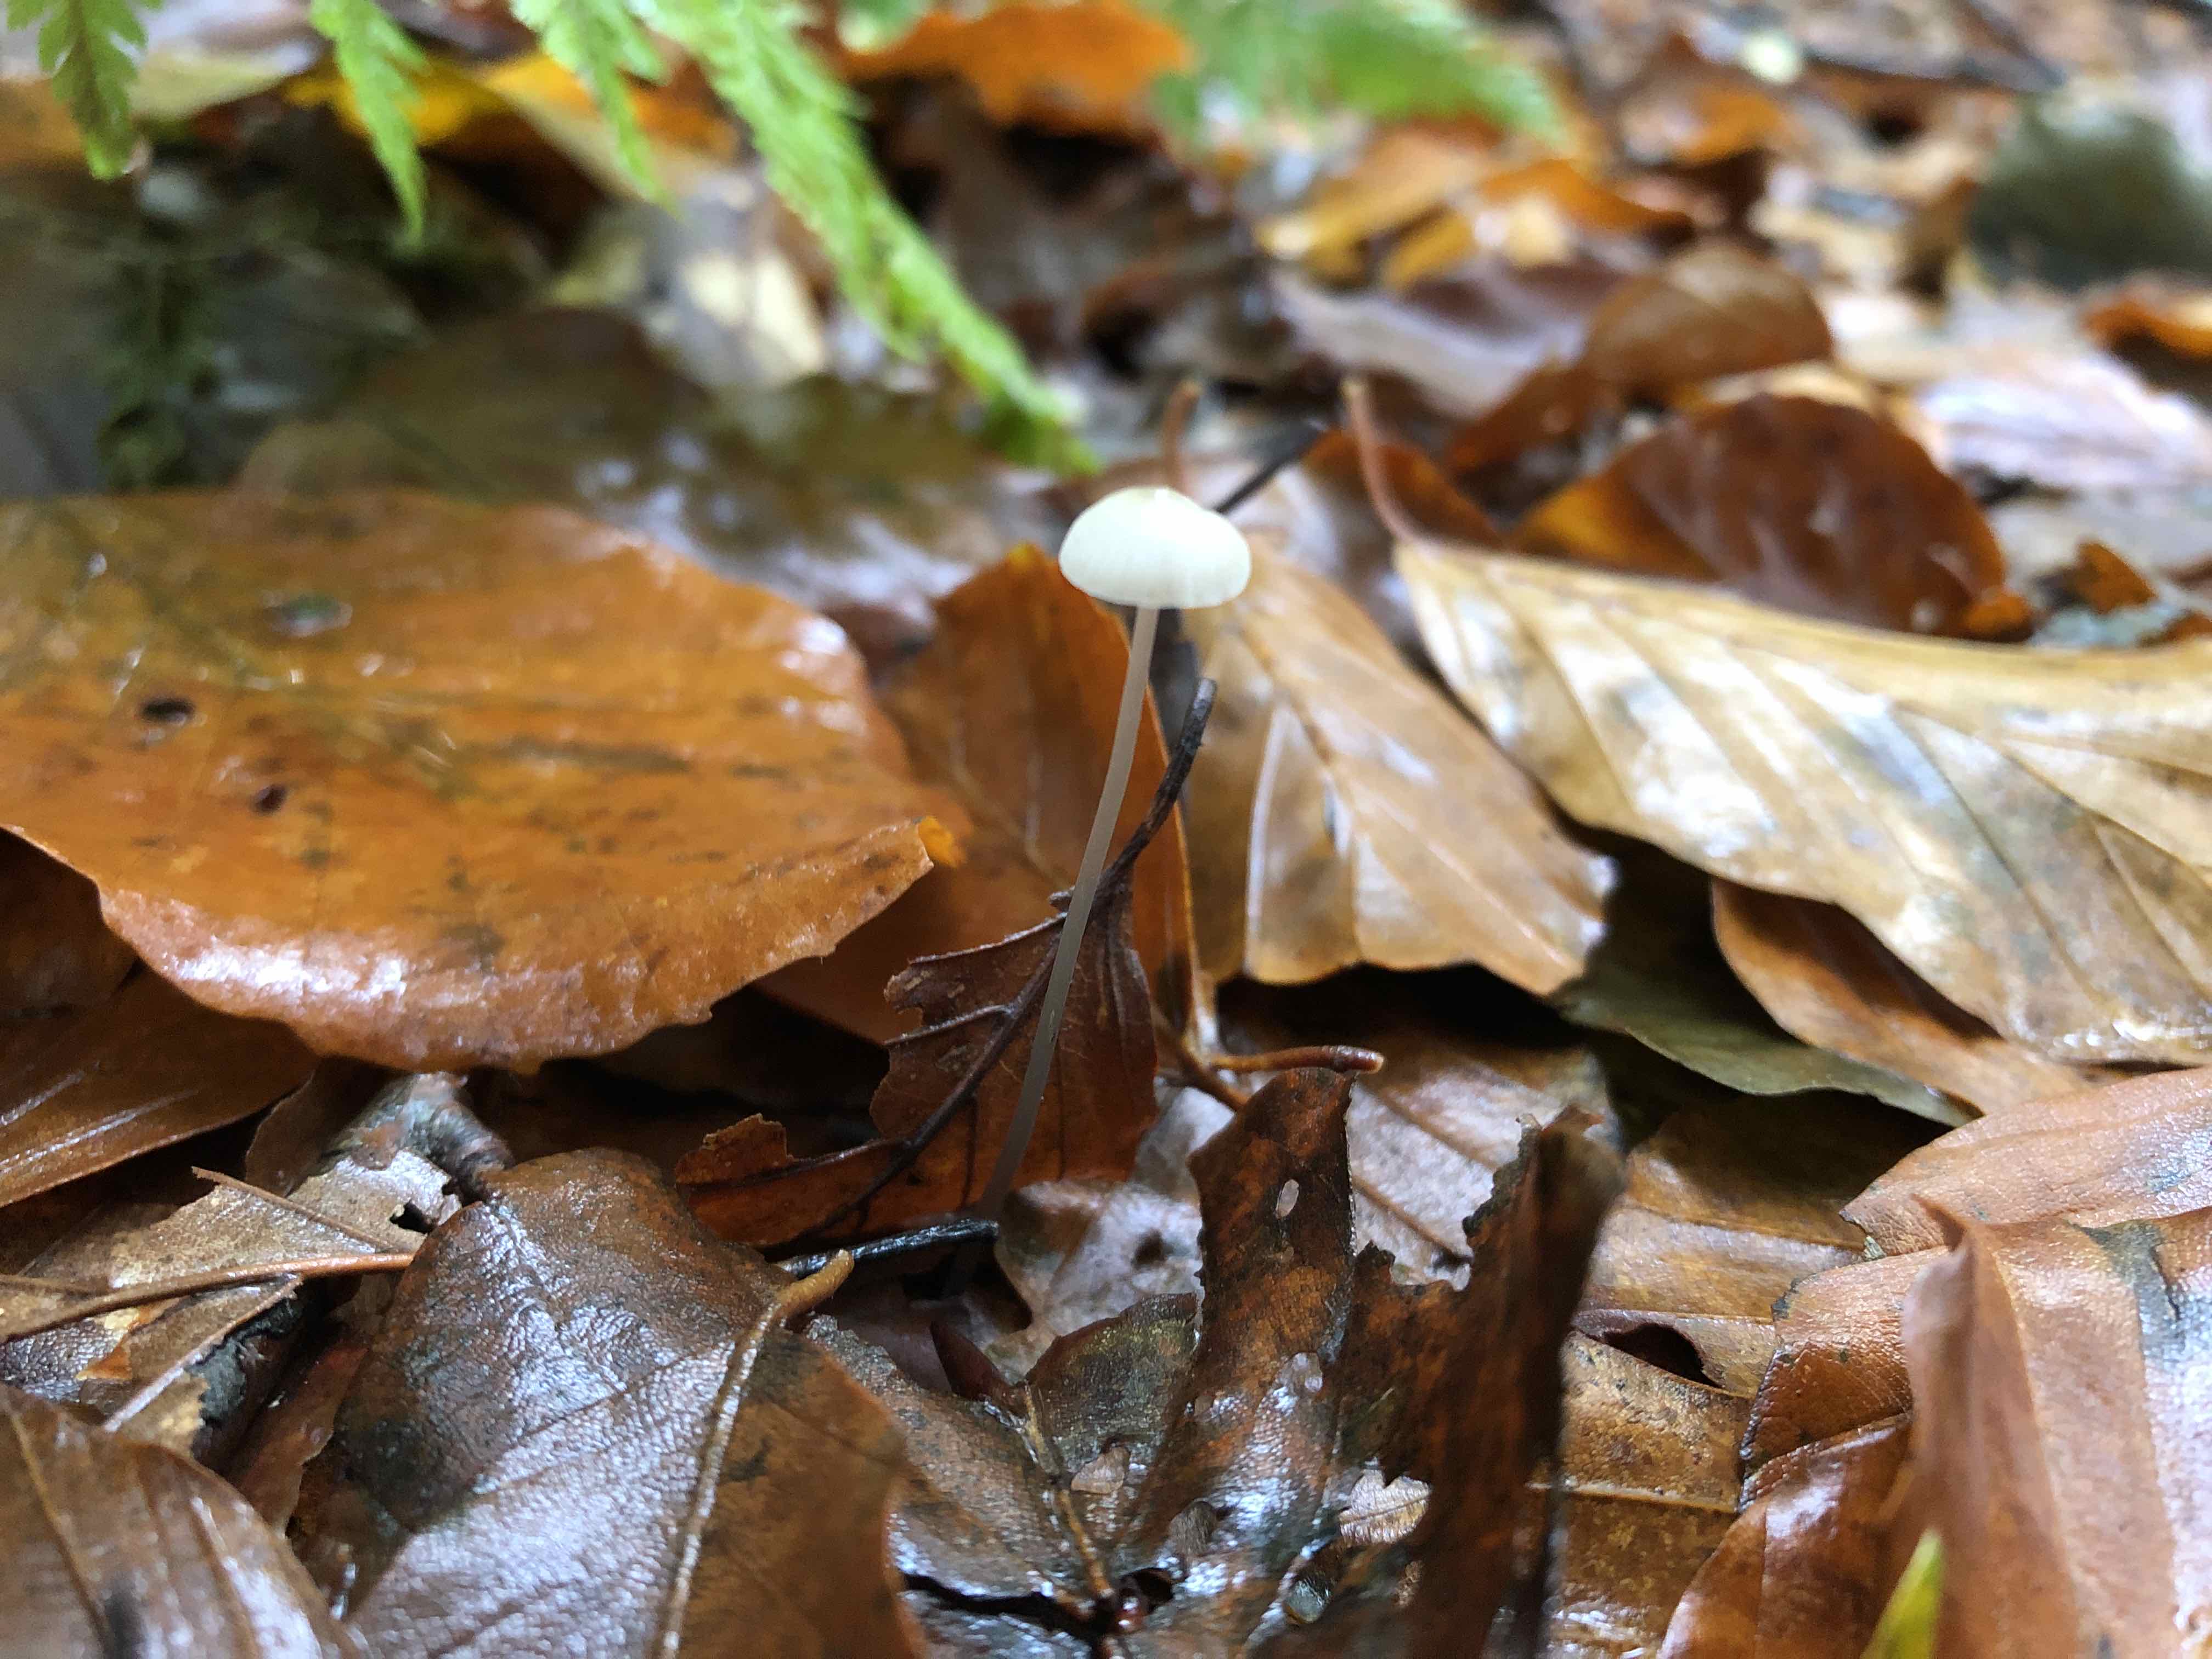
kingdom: Fungi
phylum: Basidiomycota
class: Agaricomycetes
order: Agaricales
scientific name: Agaricales
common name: champignonordenen
